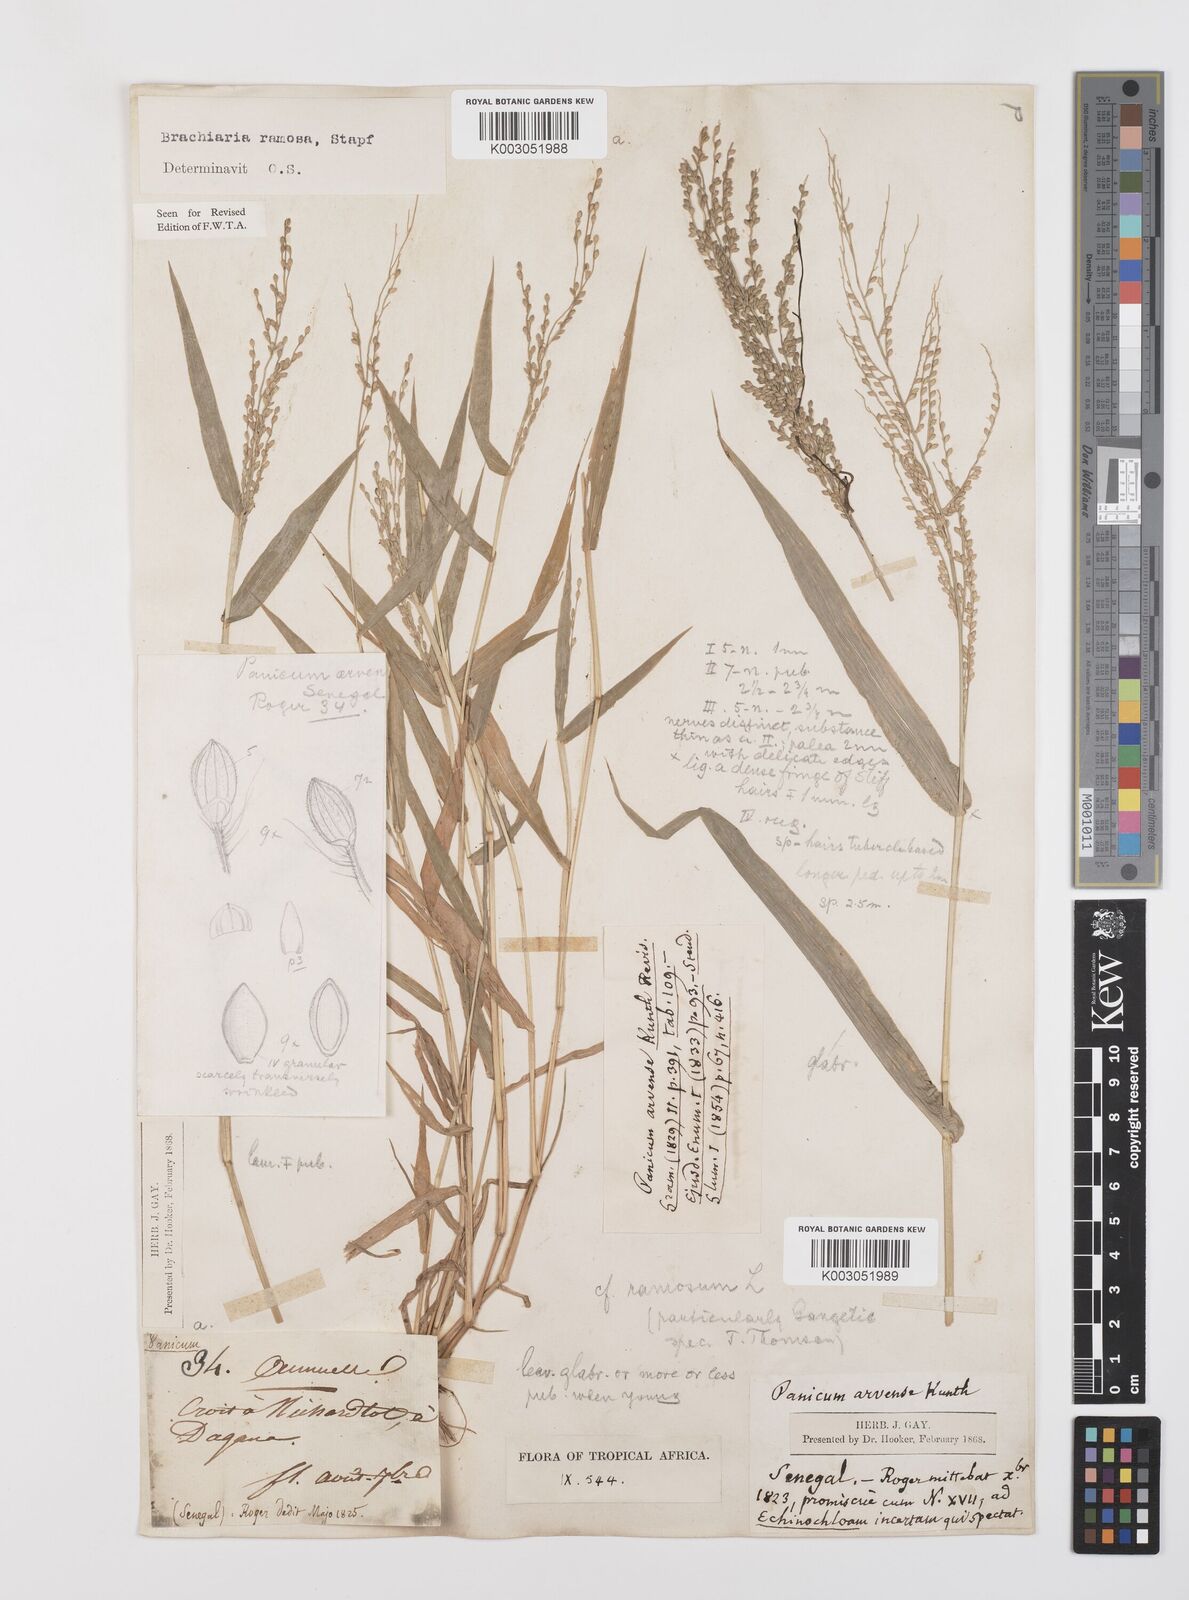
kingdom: Plantae
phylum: Tracheophyta
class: Liliopsida
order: Poales
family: Poaceae
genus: Urochloa
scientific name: Urochloa ramosa
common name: Browntop millet
